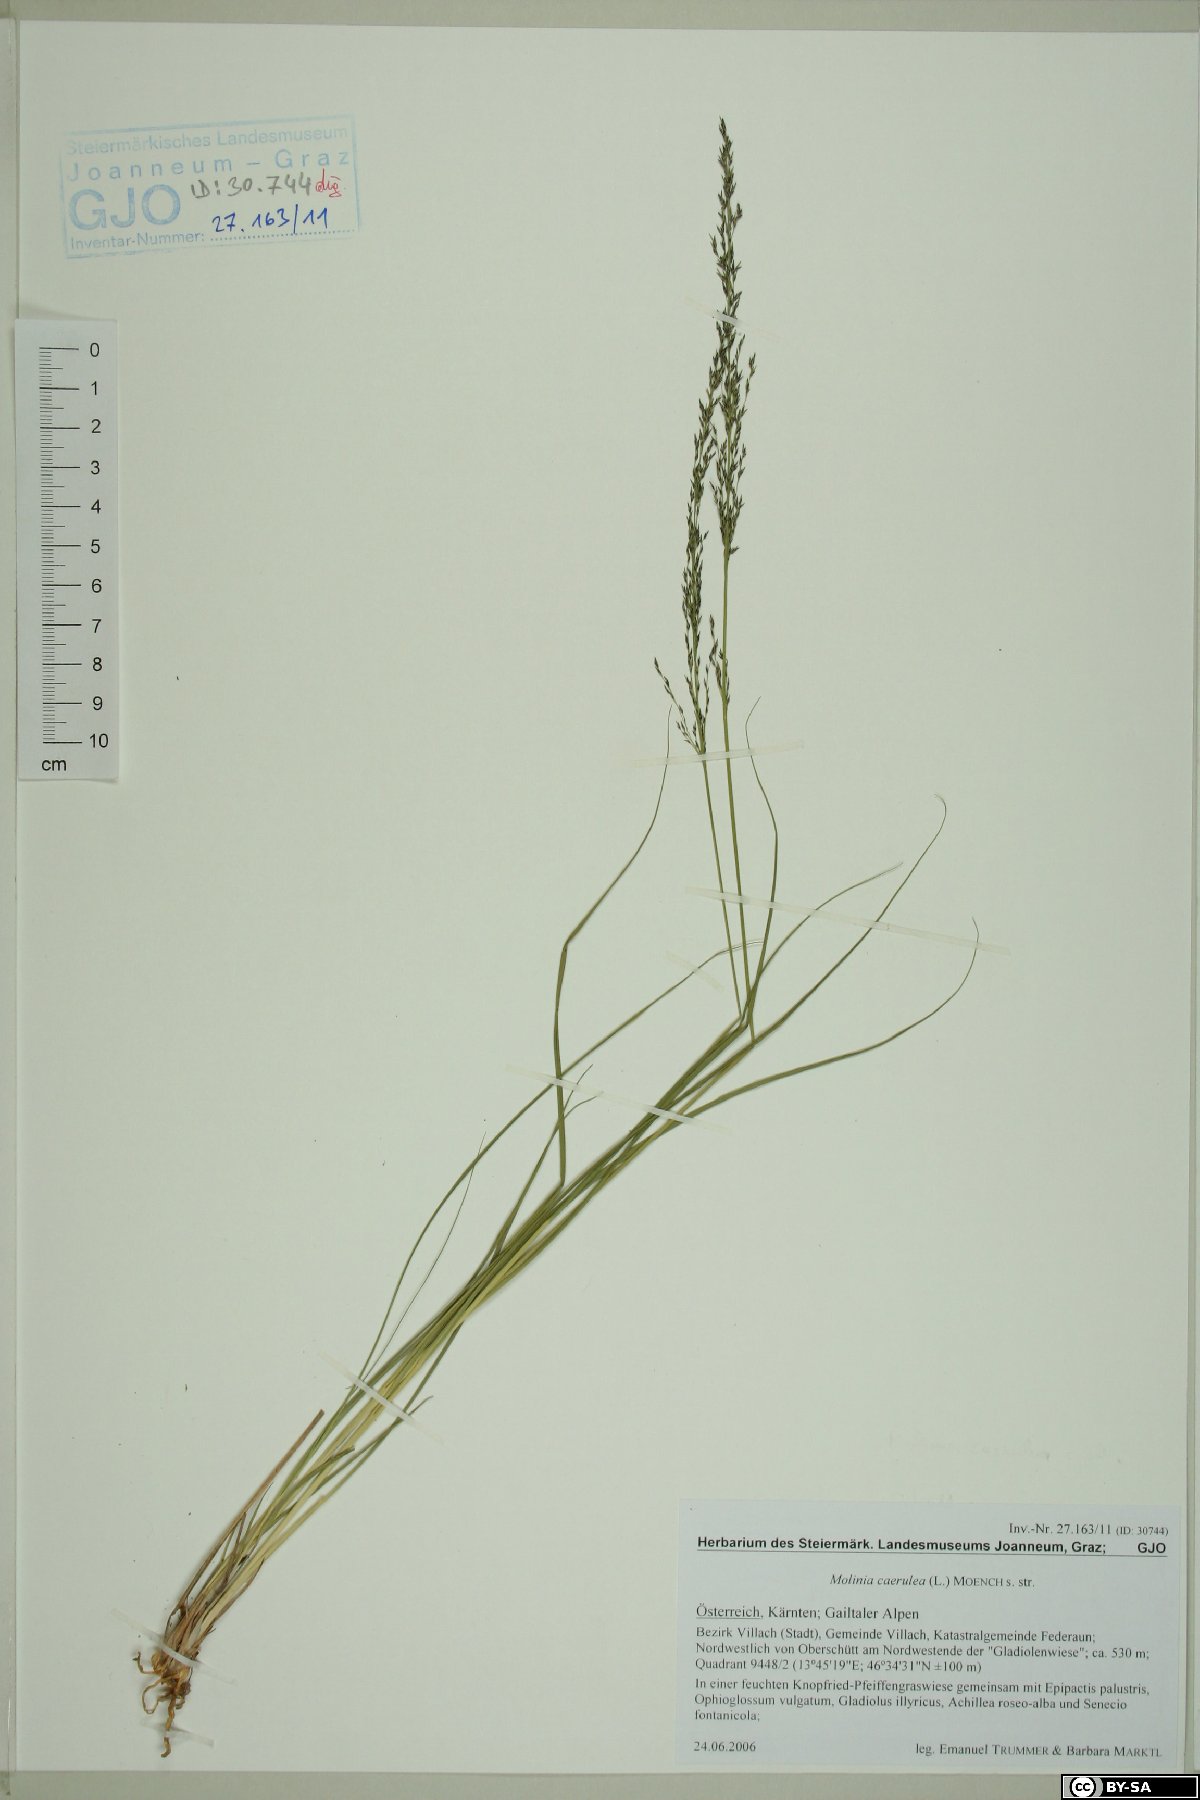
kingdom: Plantae
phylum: Tracheophyta
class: Liliopsida
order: Poales
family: Poaceae
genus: Molinia
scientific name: Molinia caerulea
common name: Purple moor-grass
